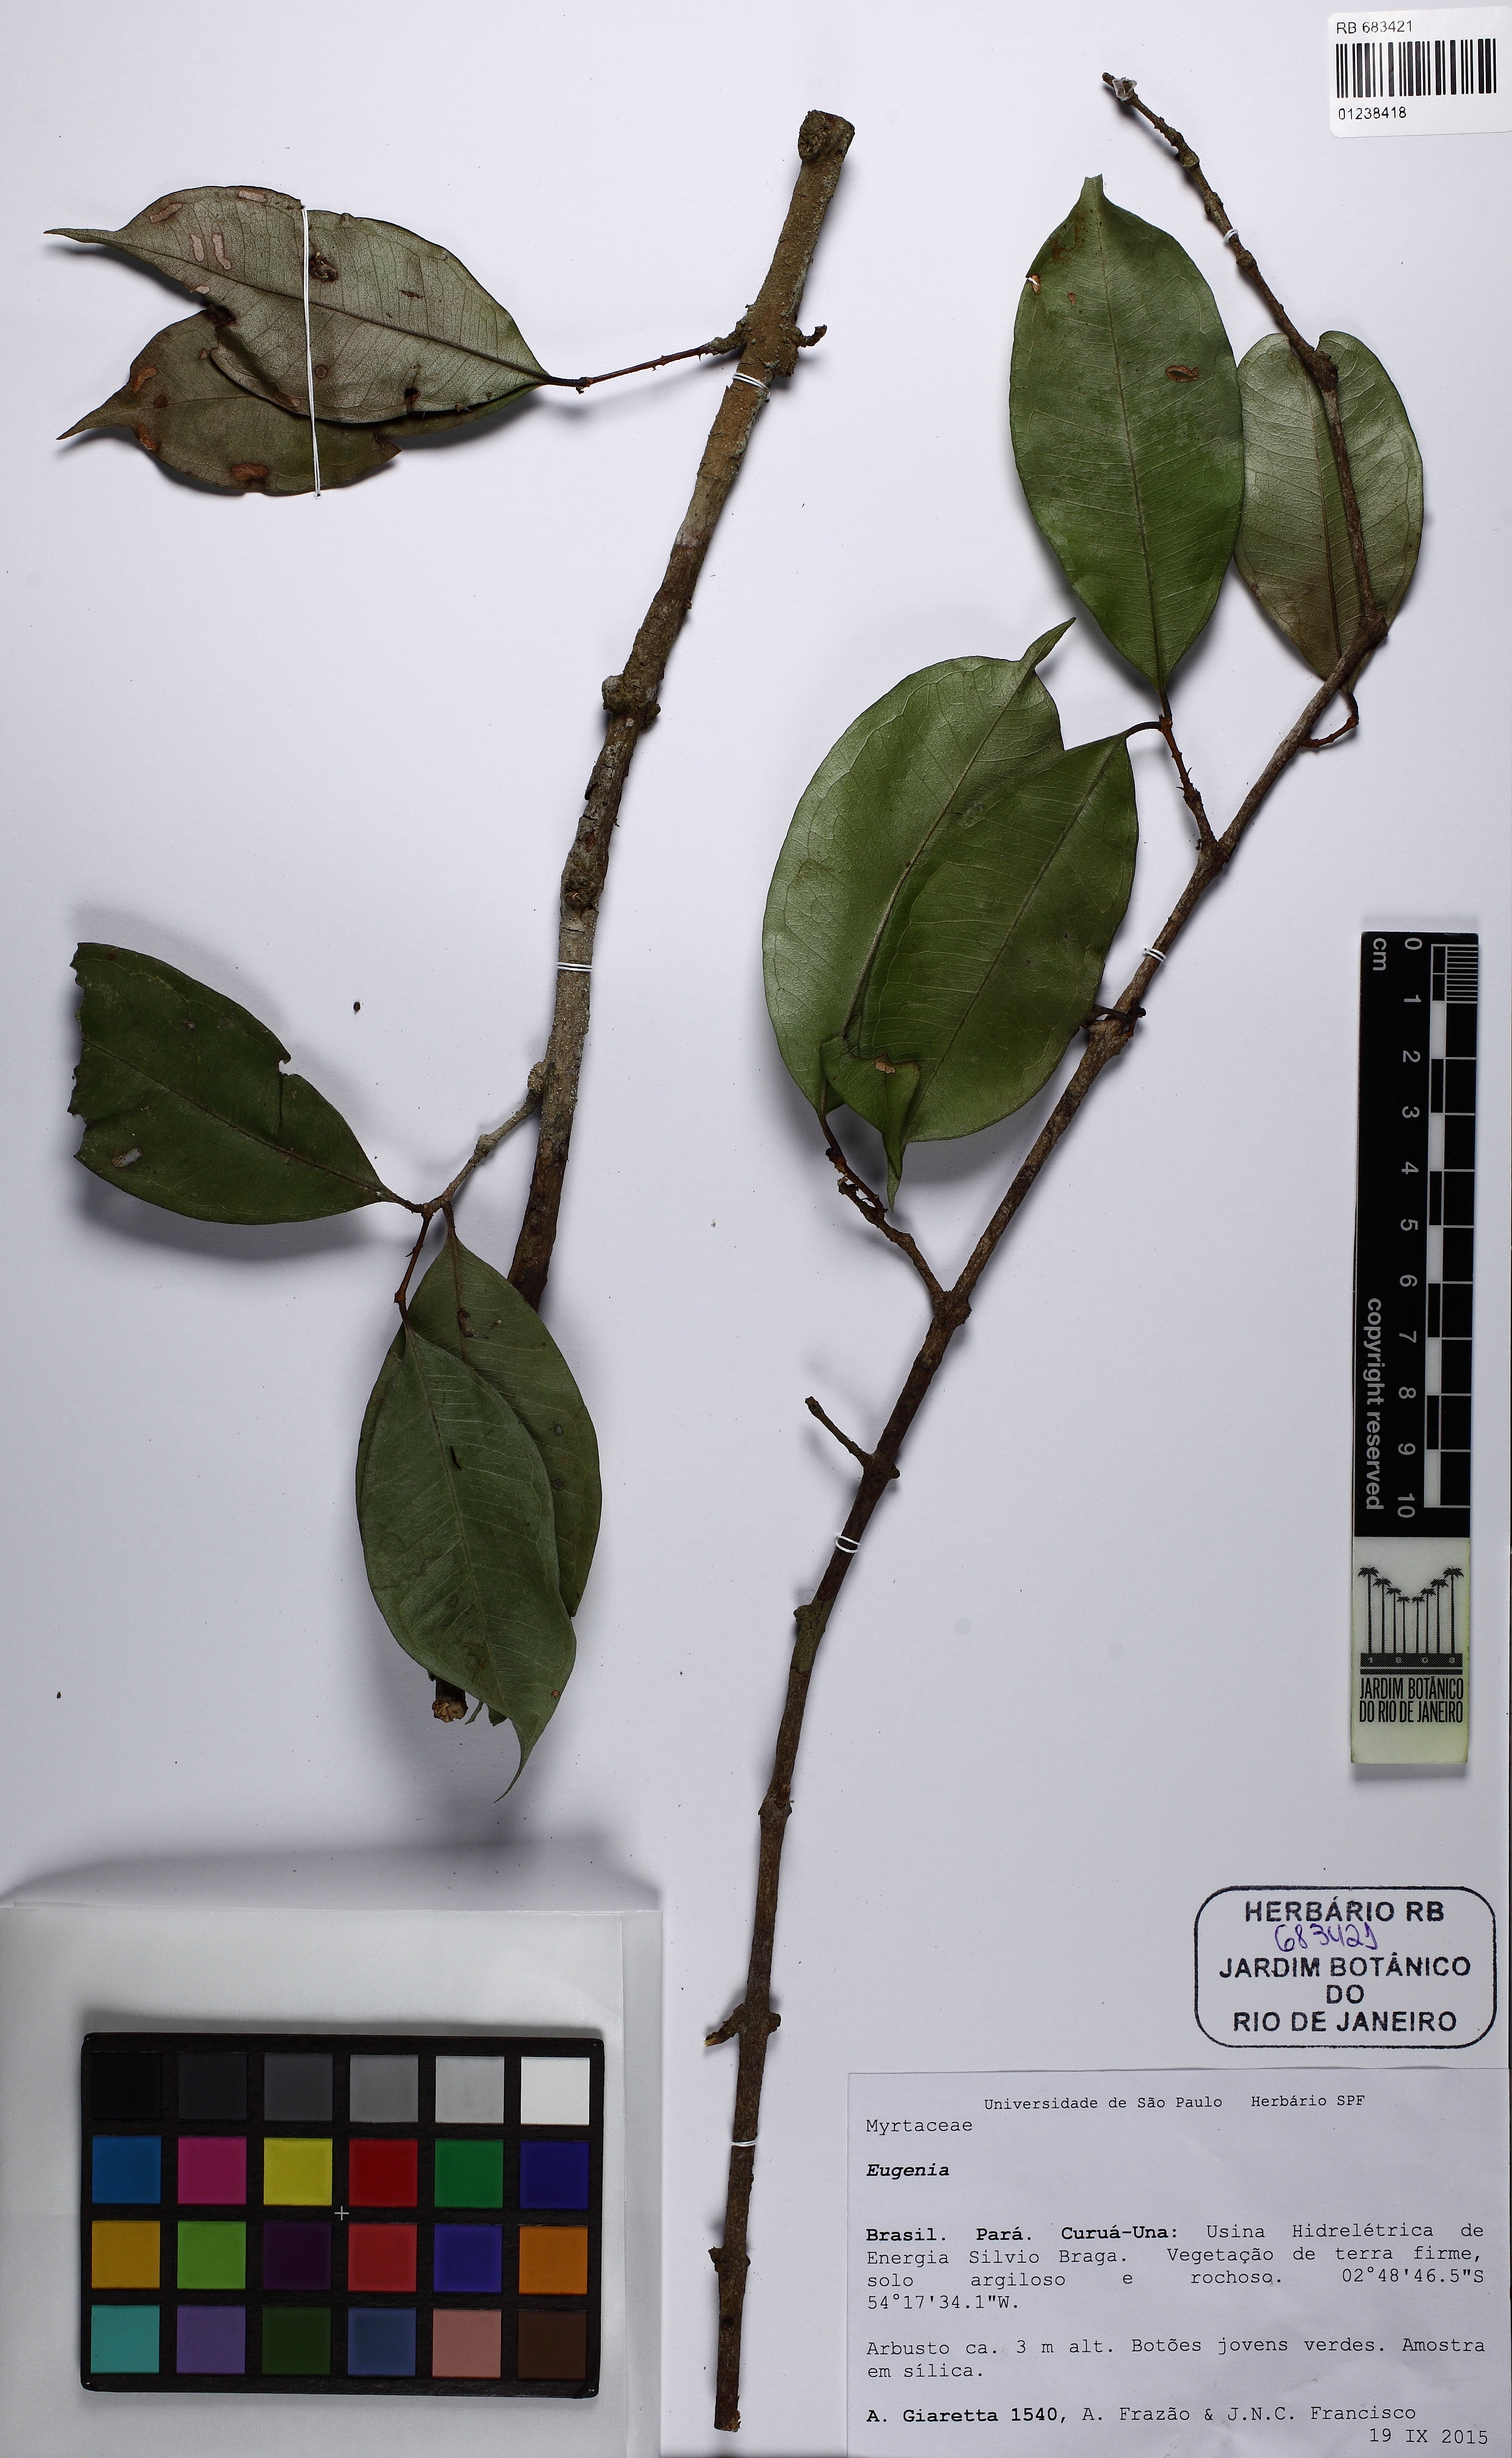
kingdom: Plantae
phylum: Tracheophyta
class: Magnoliopsida
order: Myrtales
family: Myrtaceae
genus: Eugenia
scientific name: Eugenia
